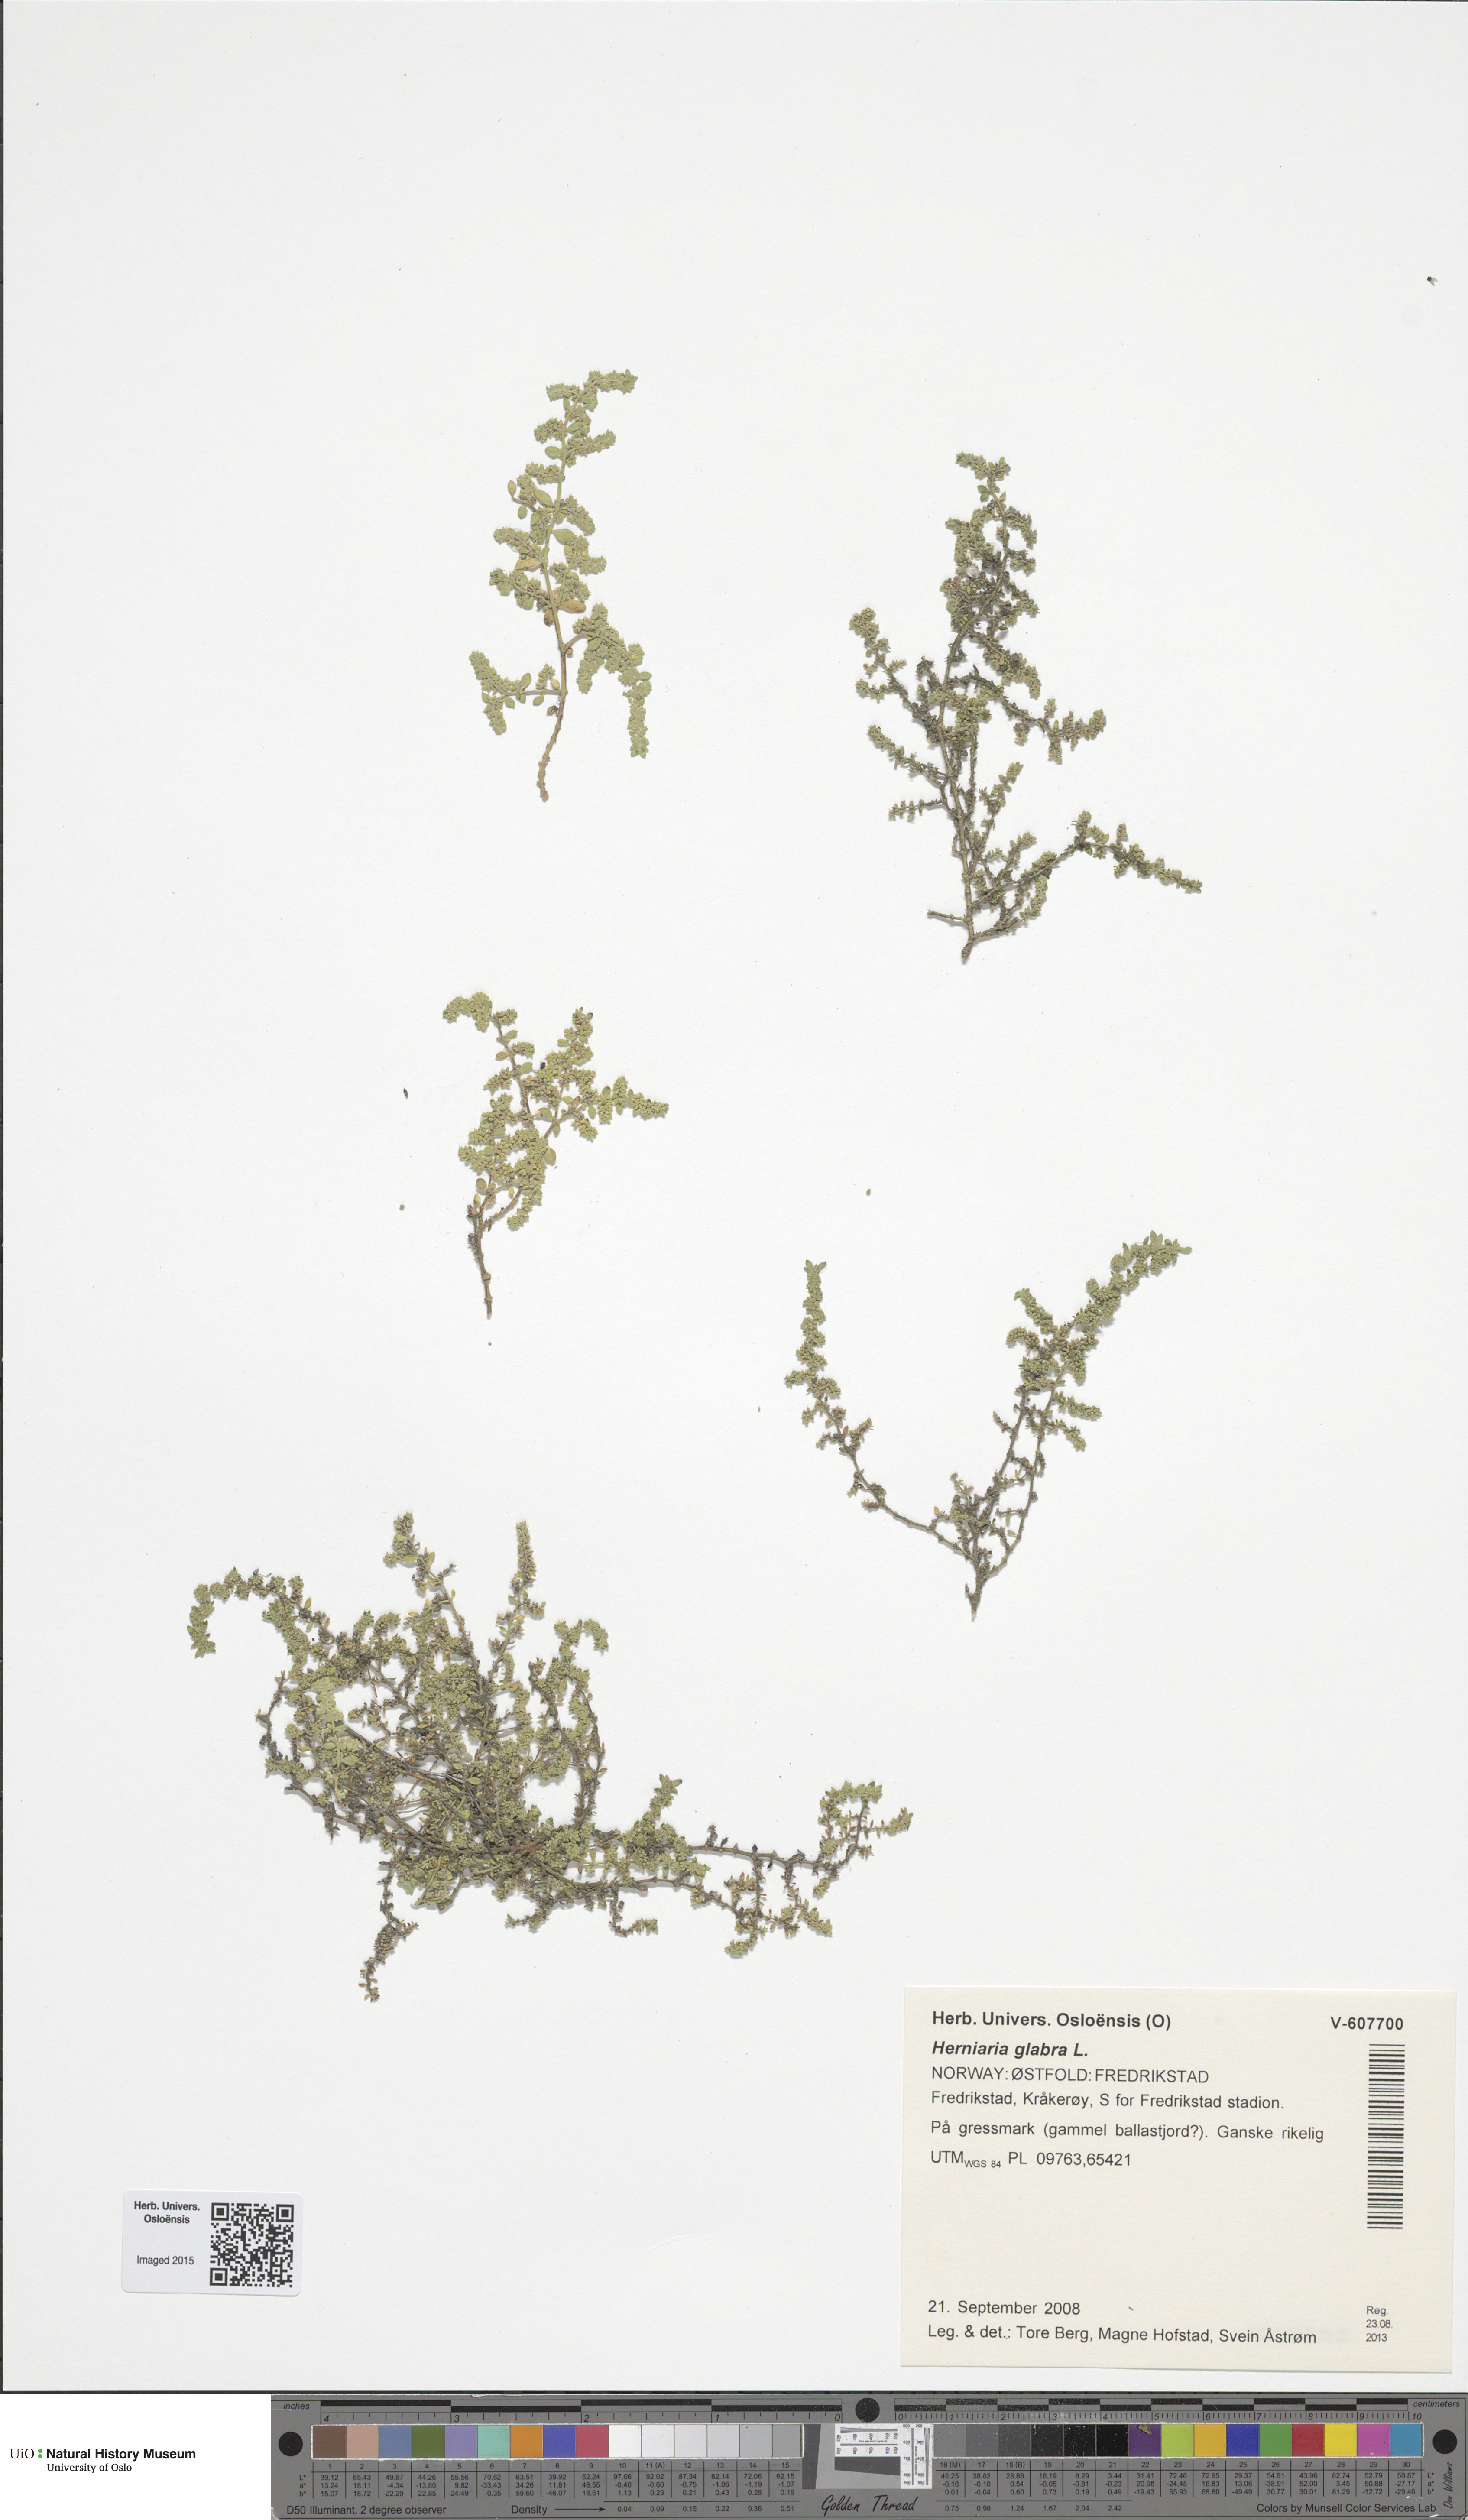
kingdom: Plantae
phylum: Tracheophyta
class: Magnoliopsida
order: Caryophyllales
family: Caryophyllaceae
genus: Herniaria
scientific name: Herniaria glabra
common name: Smooth rupturewort
